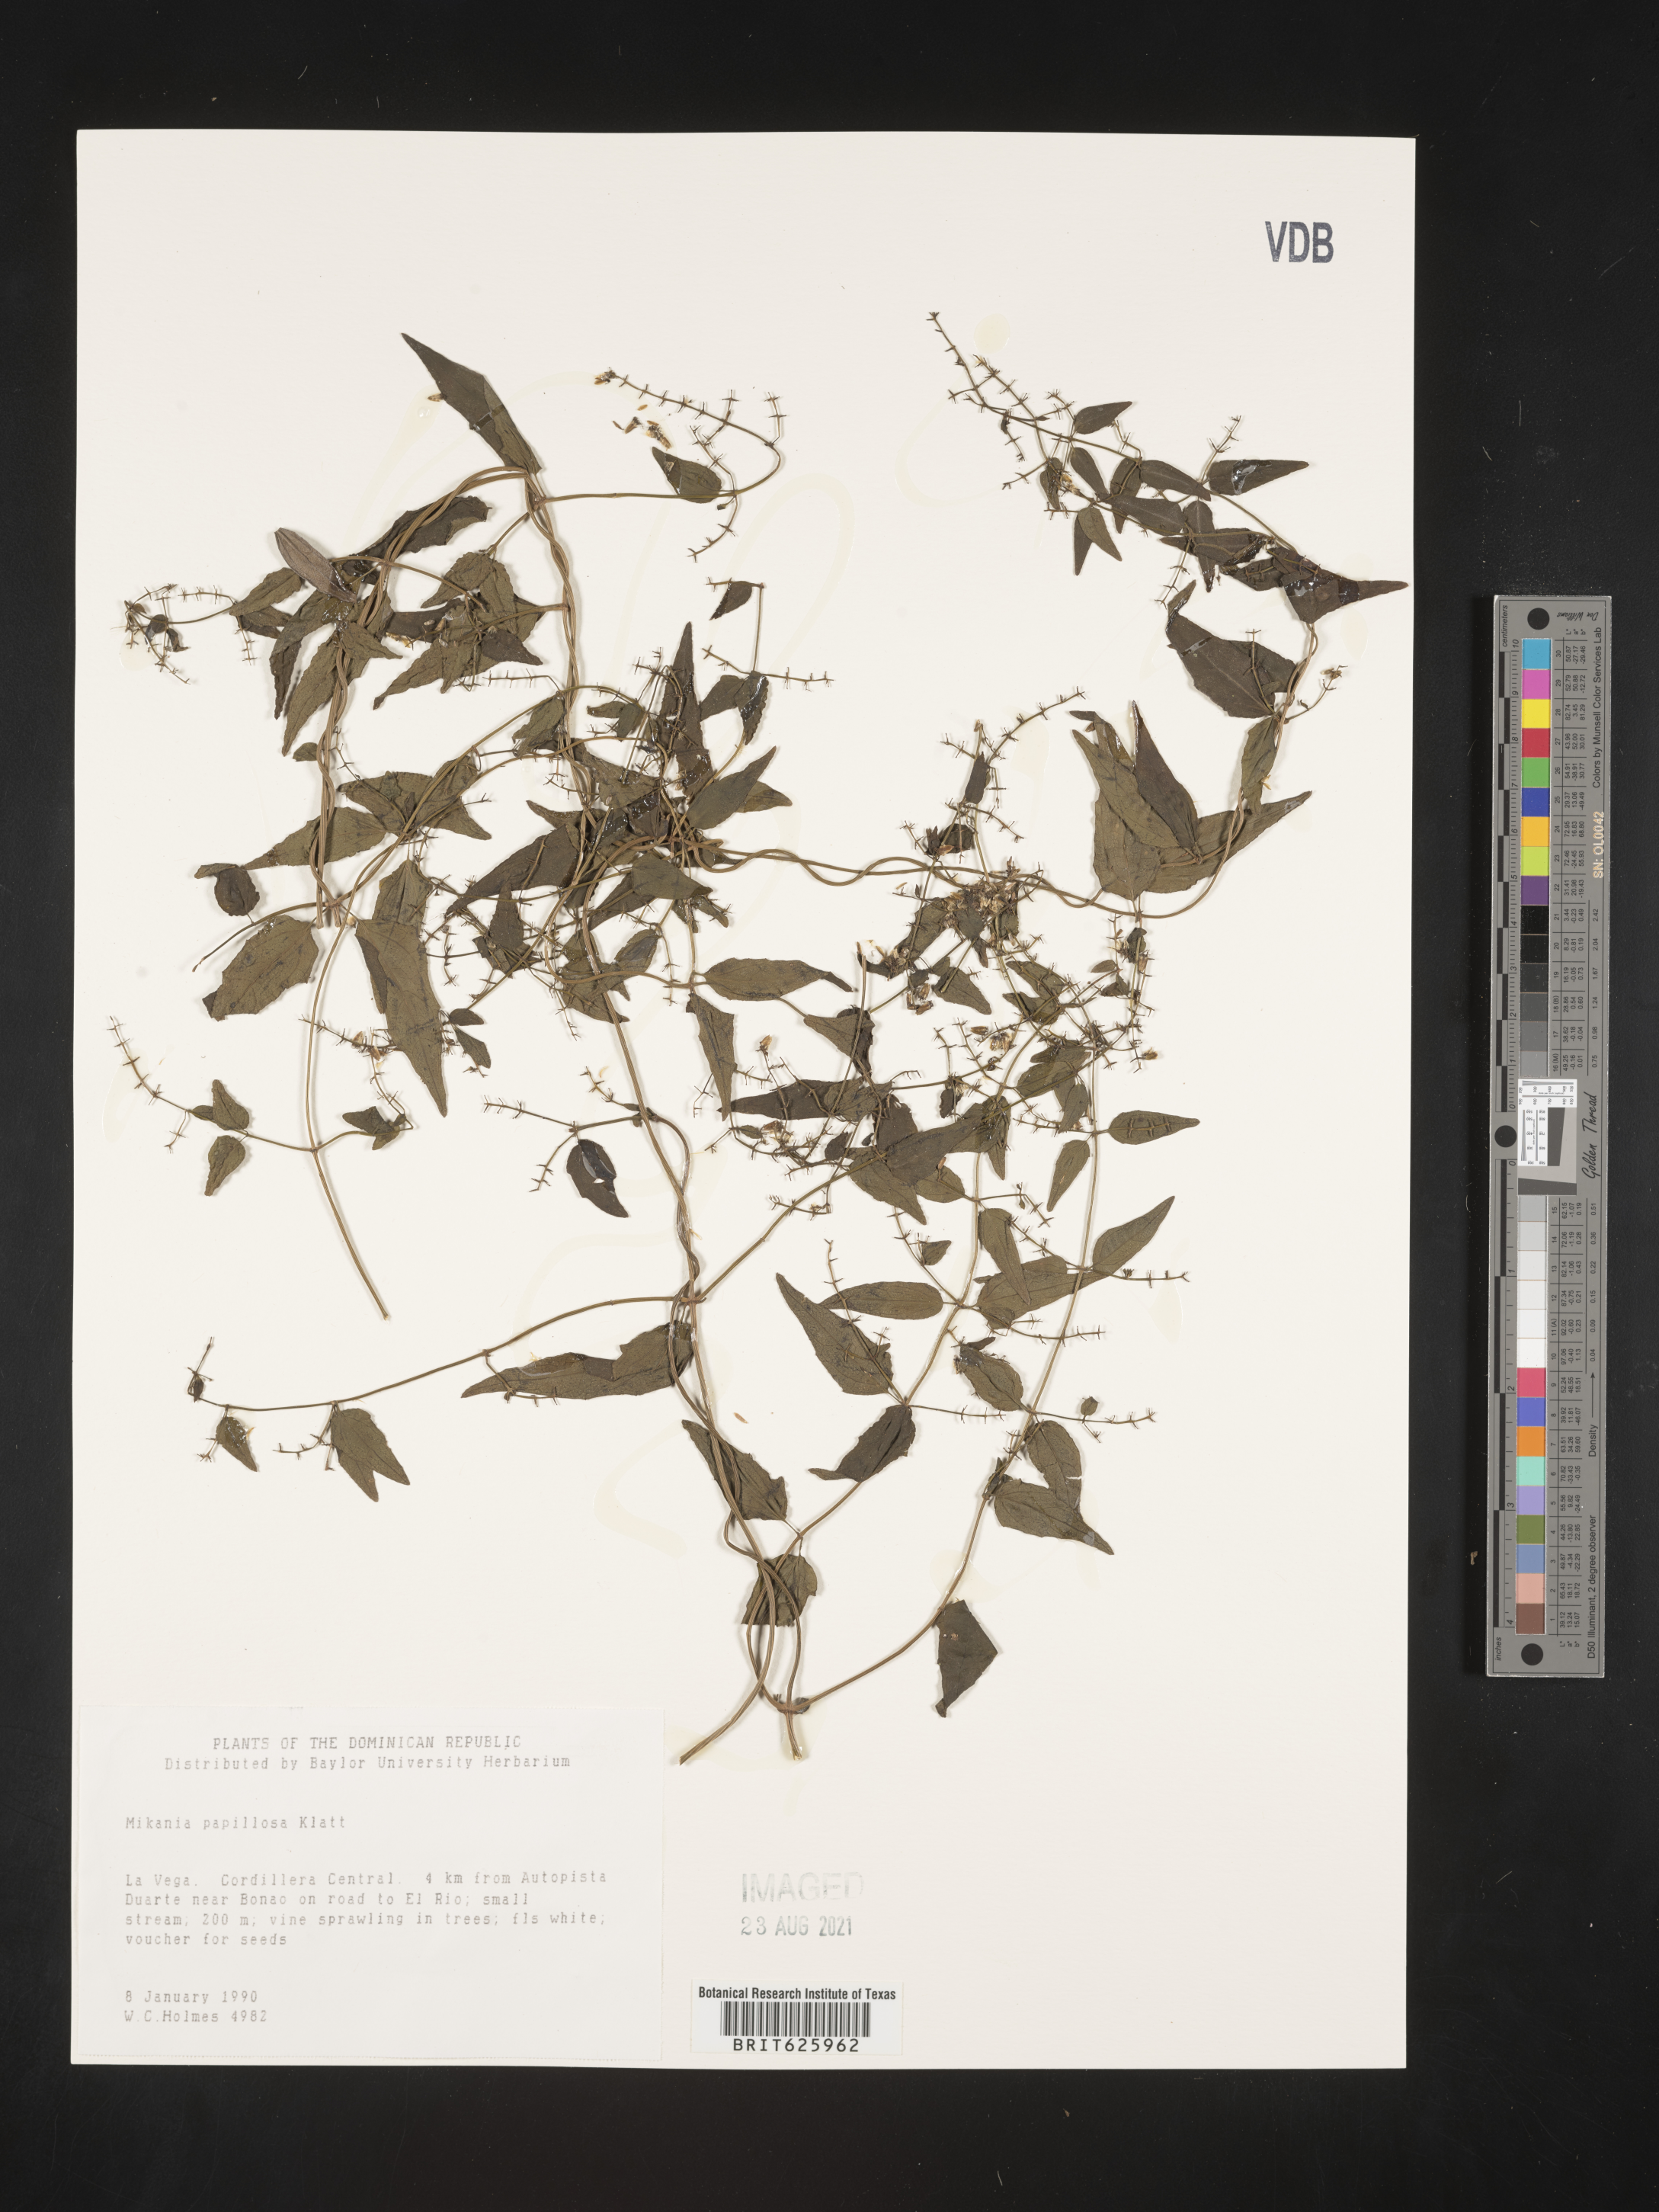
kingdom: Plantae
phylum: Tracheophyta
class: Magnoliopsida
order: Asterales
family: Asteraceae
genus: Mikania
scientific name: Mikania papillosa
